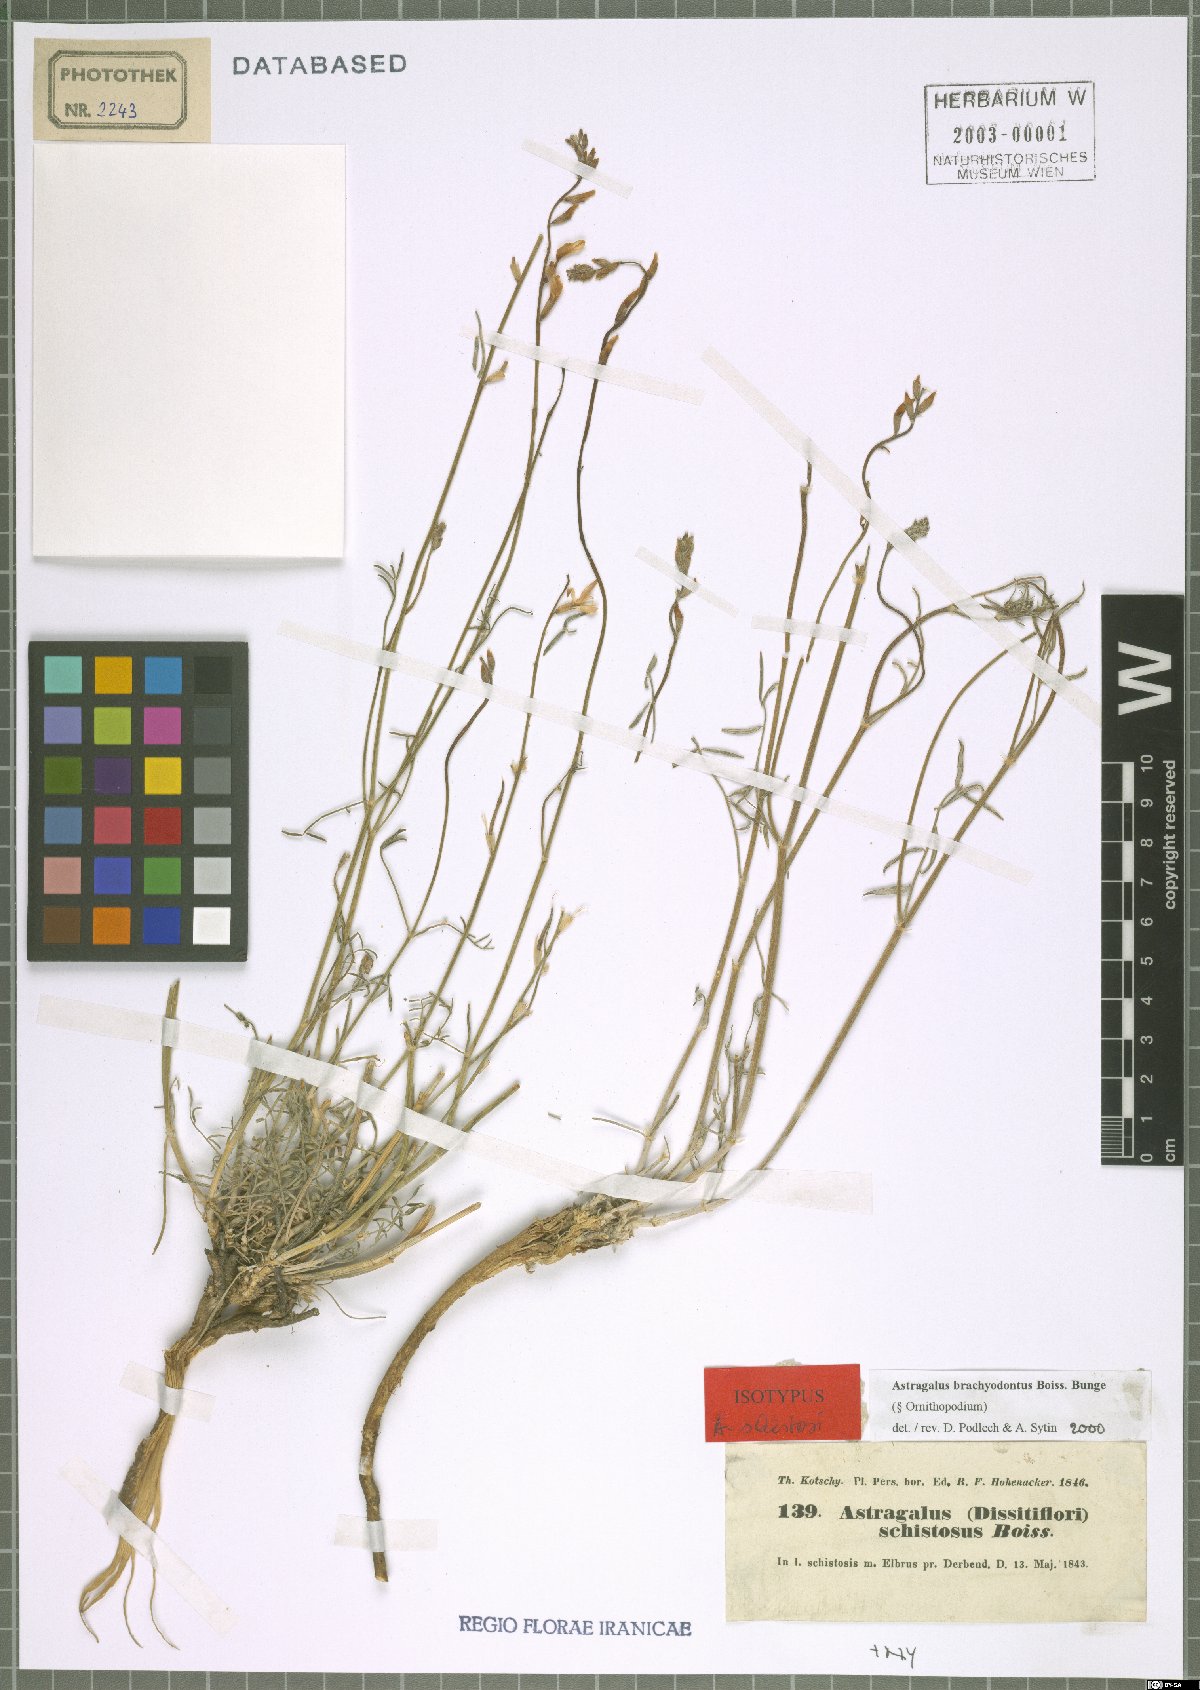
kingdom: Plantae
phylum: Tracheophyta
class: Magnoliopsida
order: Fabales
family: Fabaceae
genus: Astragalus
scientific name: Astragalus brachyodontus
